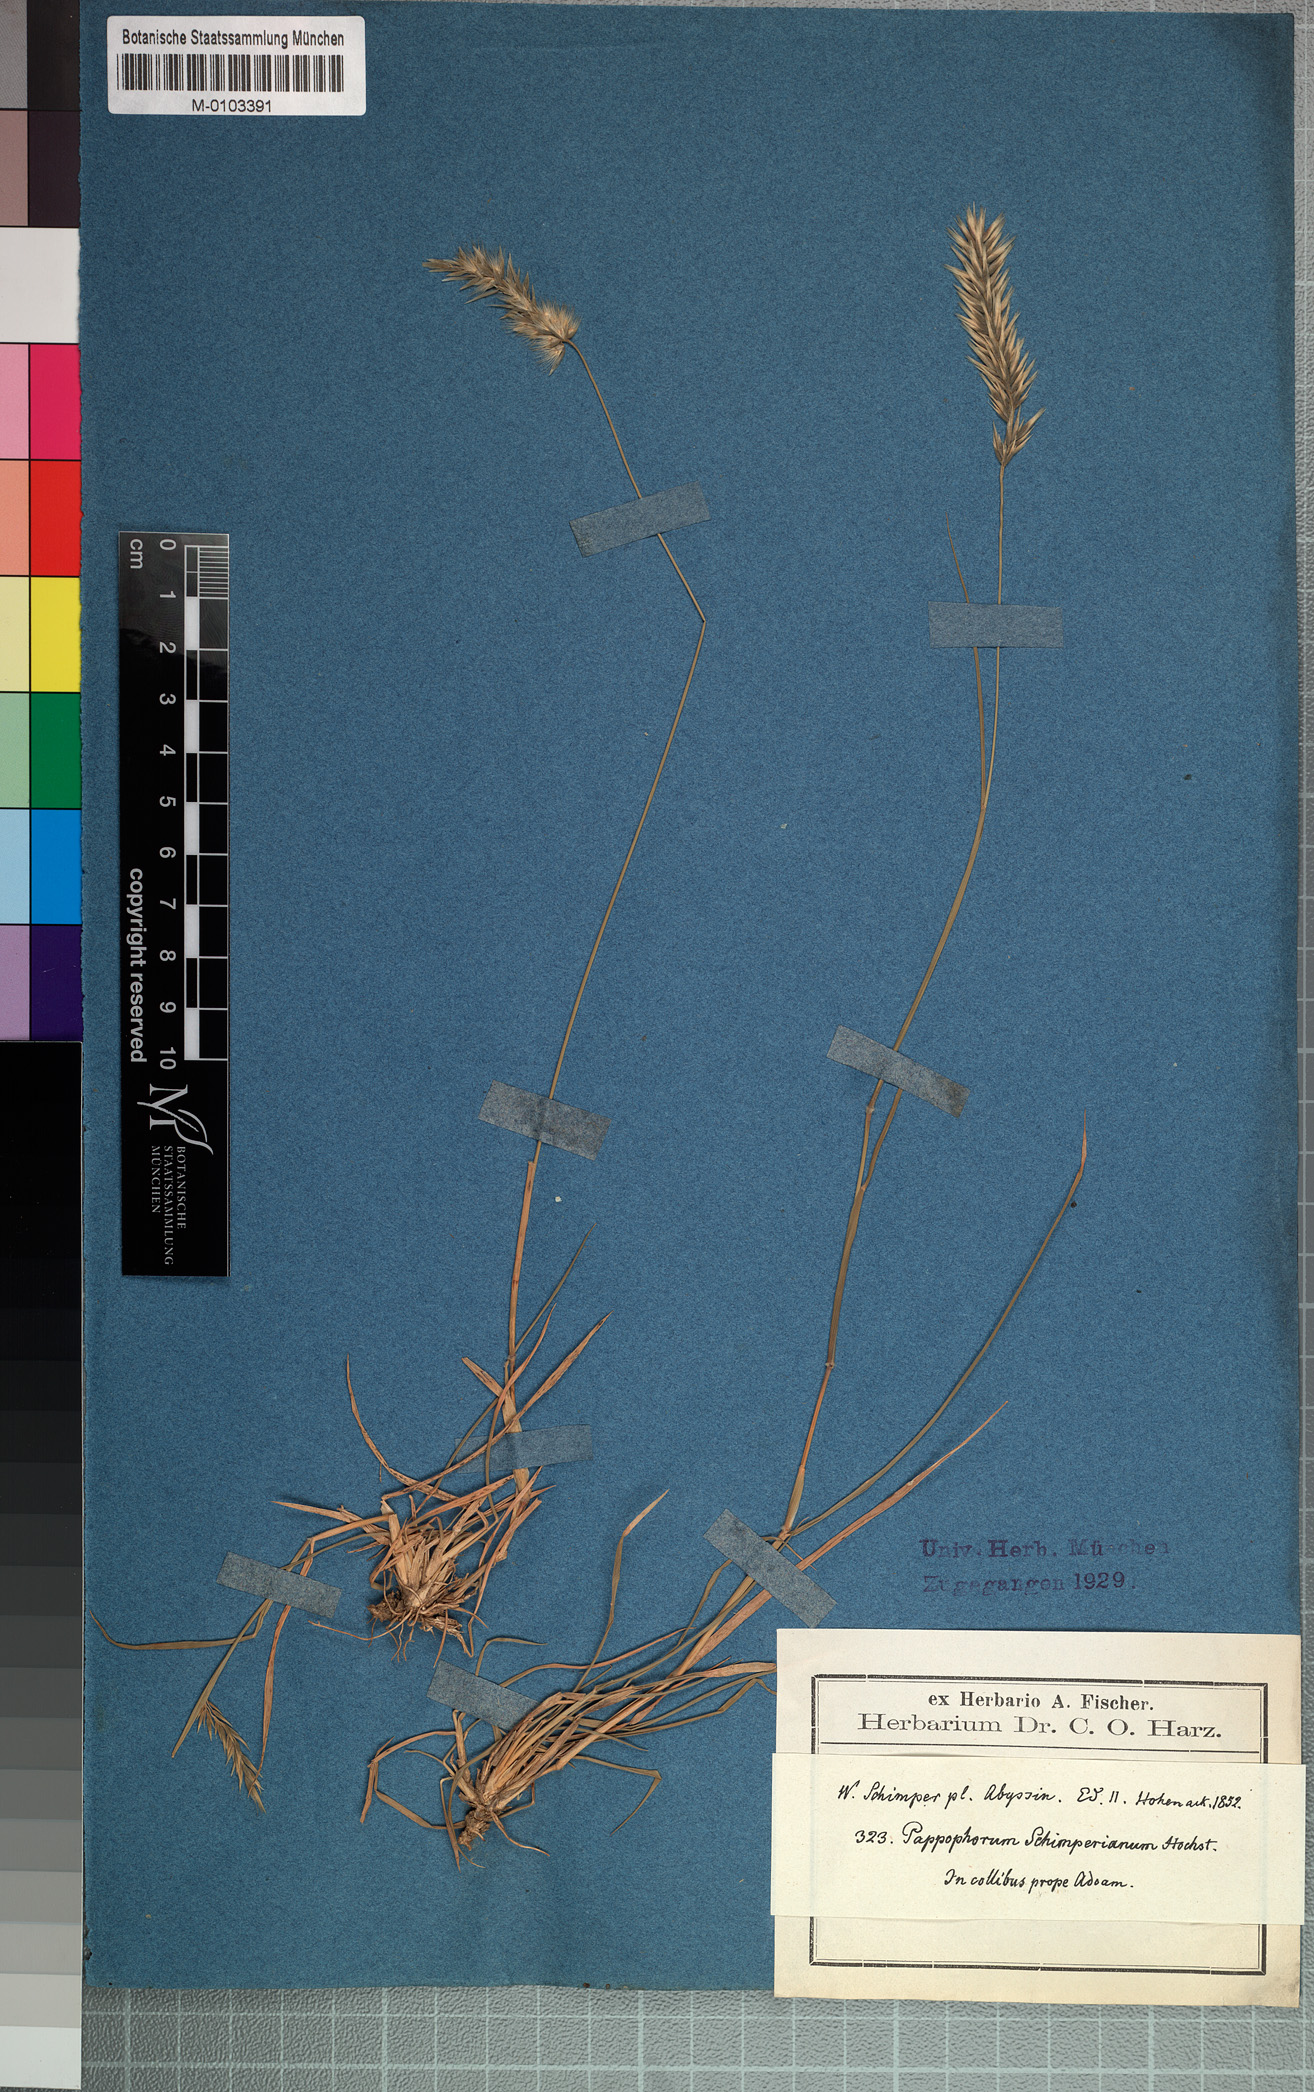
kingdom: Plantae
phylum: Tracheophyta
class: Liliopsida
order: Poales
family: Poaceae
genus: Enneapogon
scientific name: Enneapogon persicus
